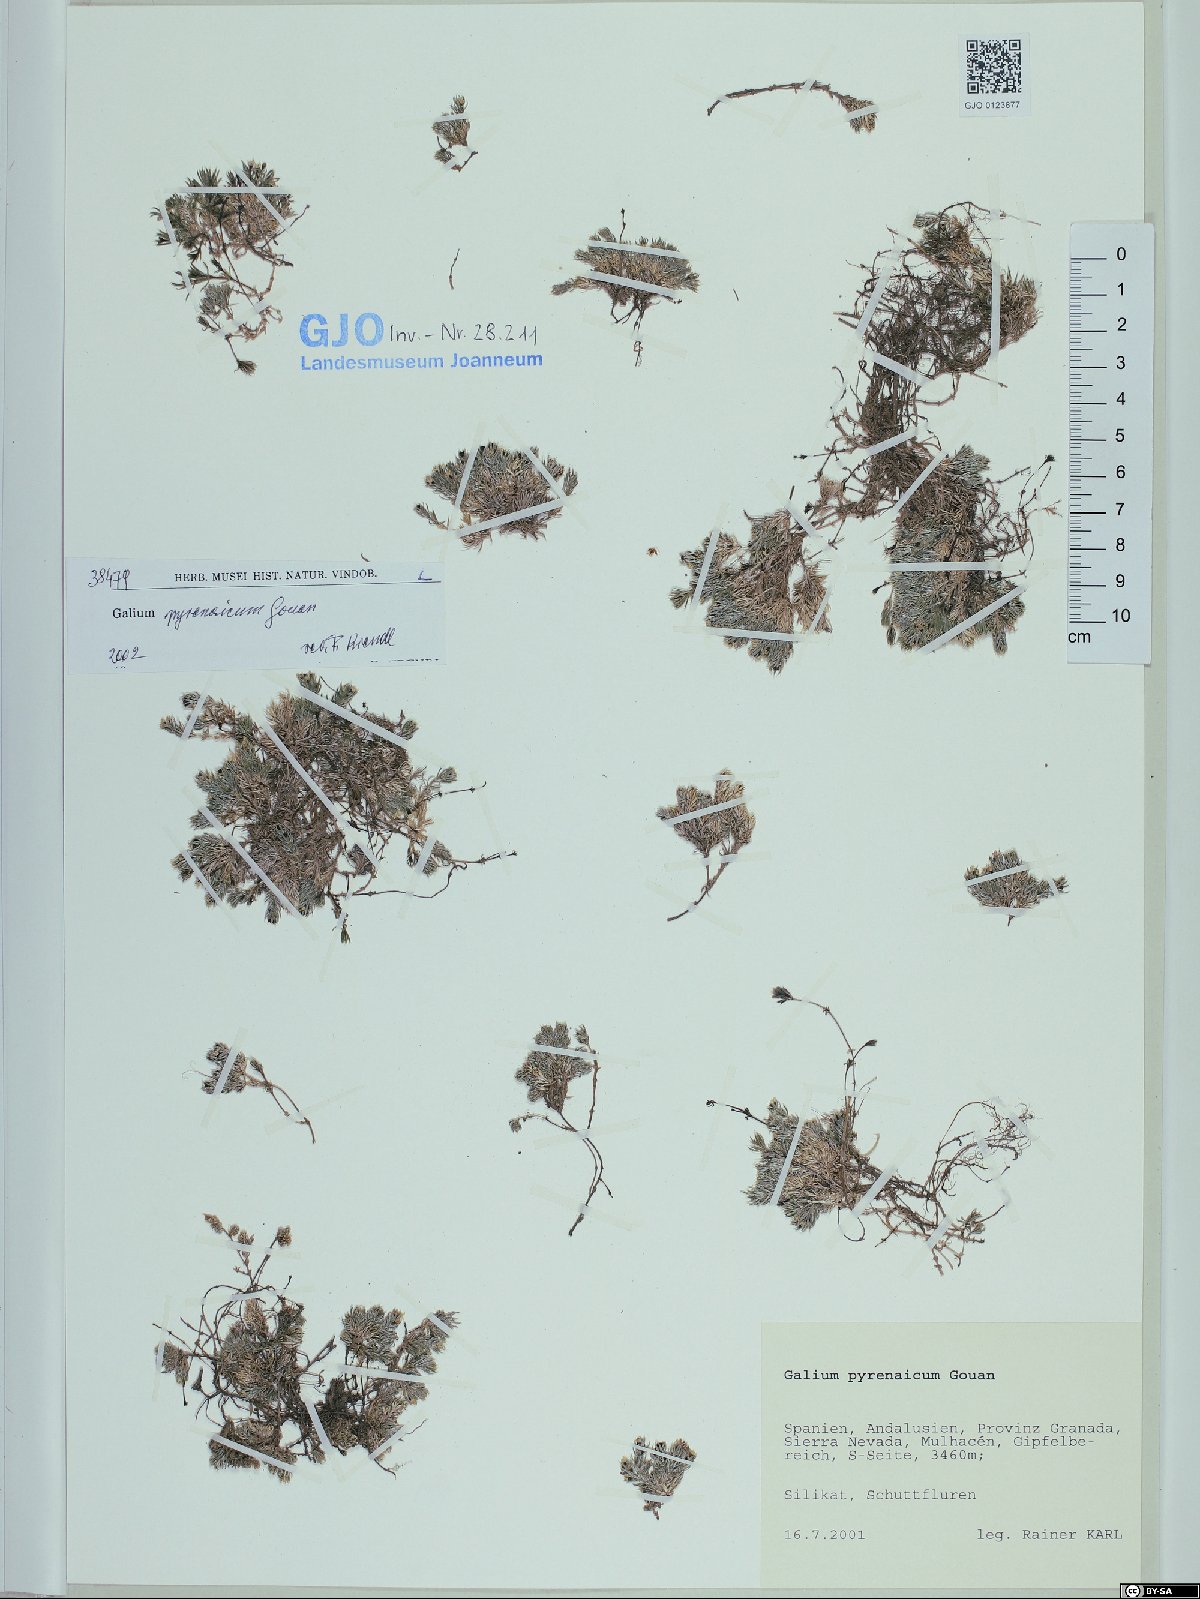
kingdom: Plantae
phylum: Tracheophyta
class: Magnoliopsida
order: Gentianales
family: Rubiaceae
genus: Galium
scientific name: Galium pyrenaicum
